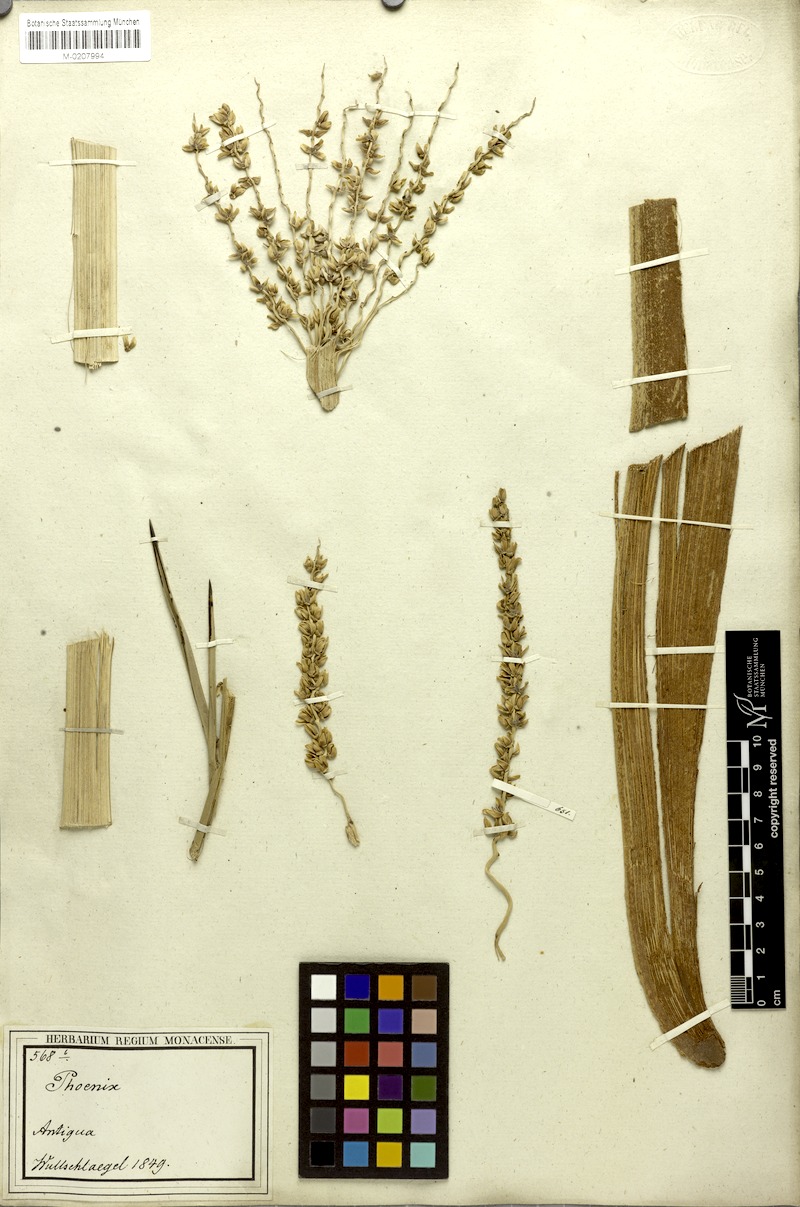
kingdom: Plantae
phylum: Tracheophyta
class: Liliopsida
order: Arecales
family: Arecaceae
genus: Phoenix
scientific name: Phoenix dactylifera
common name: Date palm
